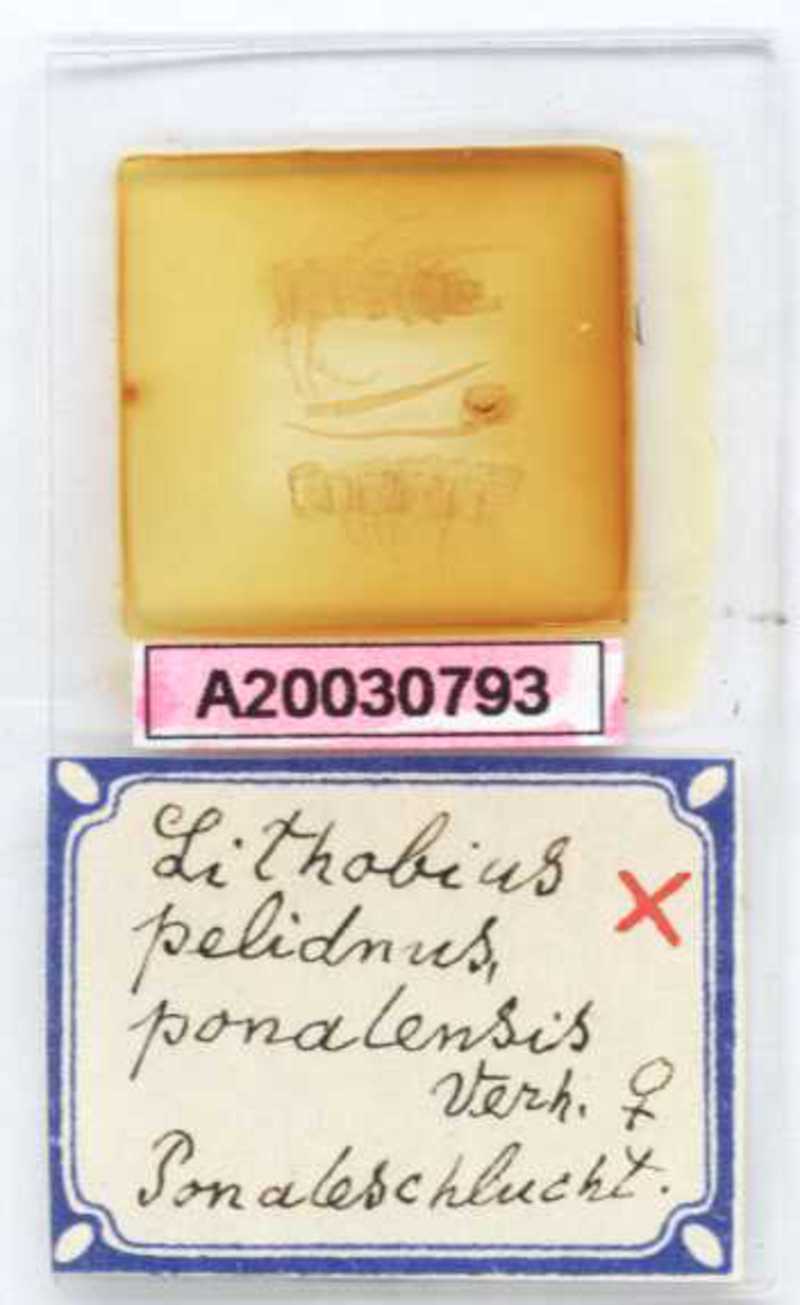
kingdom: Animalia
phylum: Arthropoda
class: Chilopoda
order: Lithobiomorpha
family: Lithobiidae
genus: Lithobius
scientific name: Lithobius pelidnus
